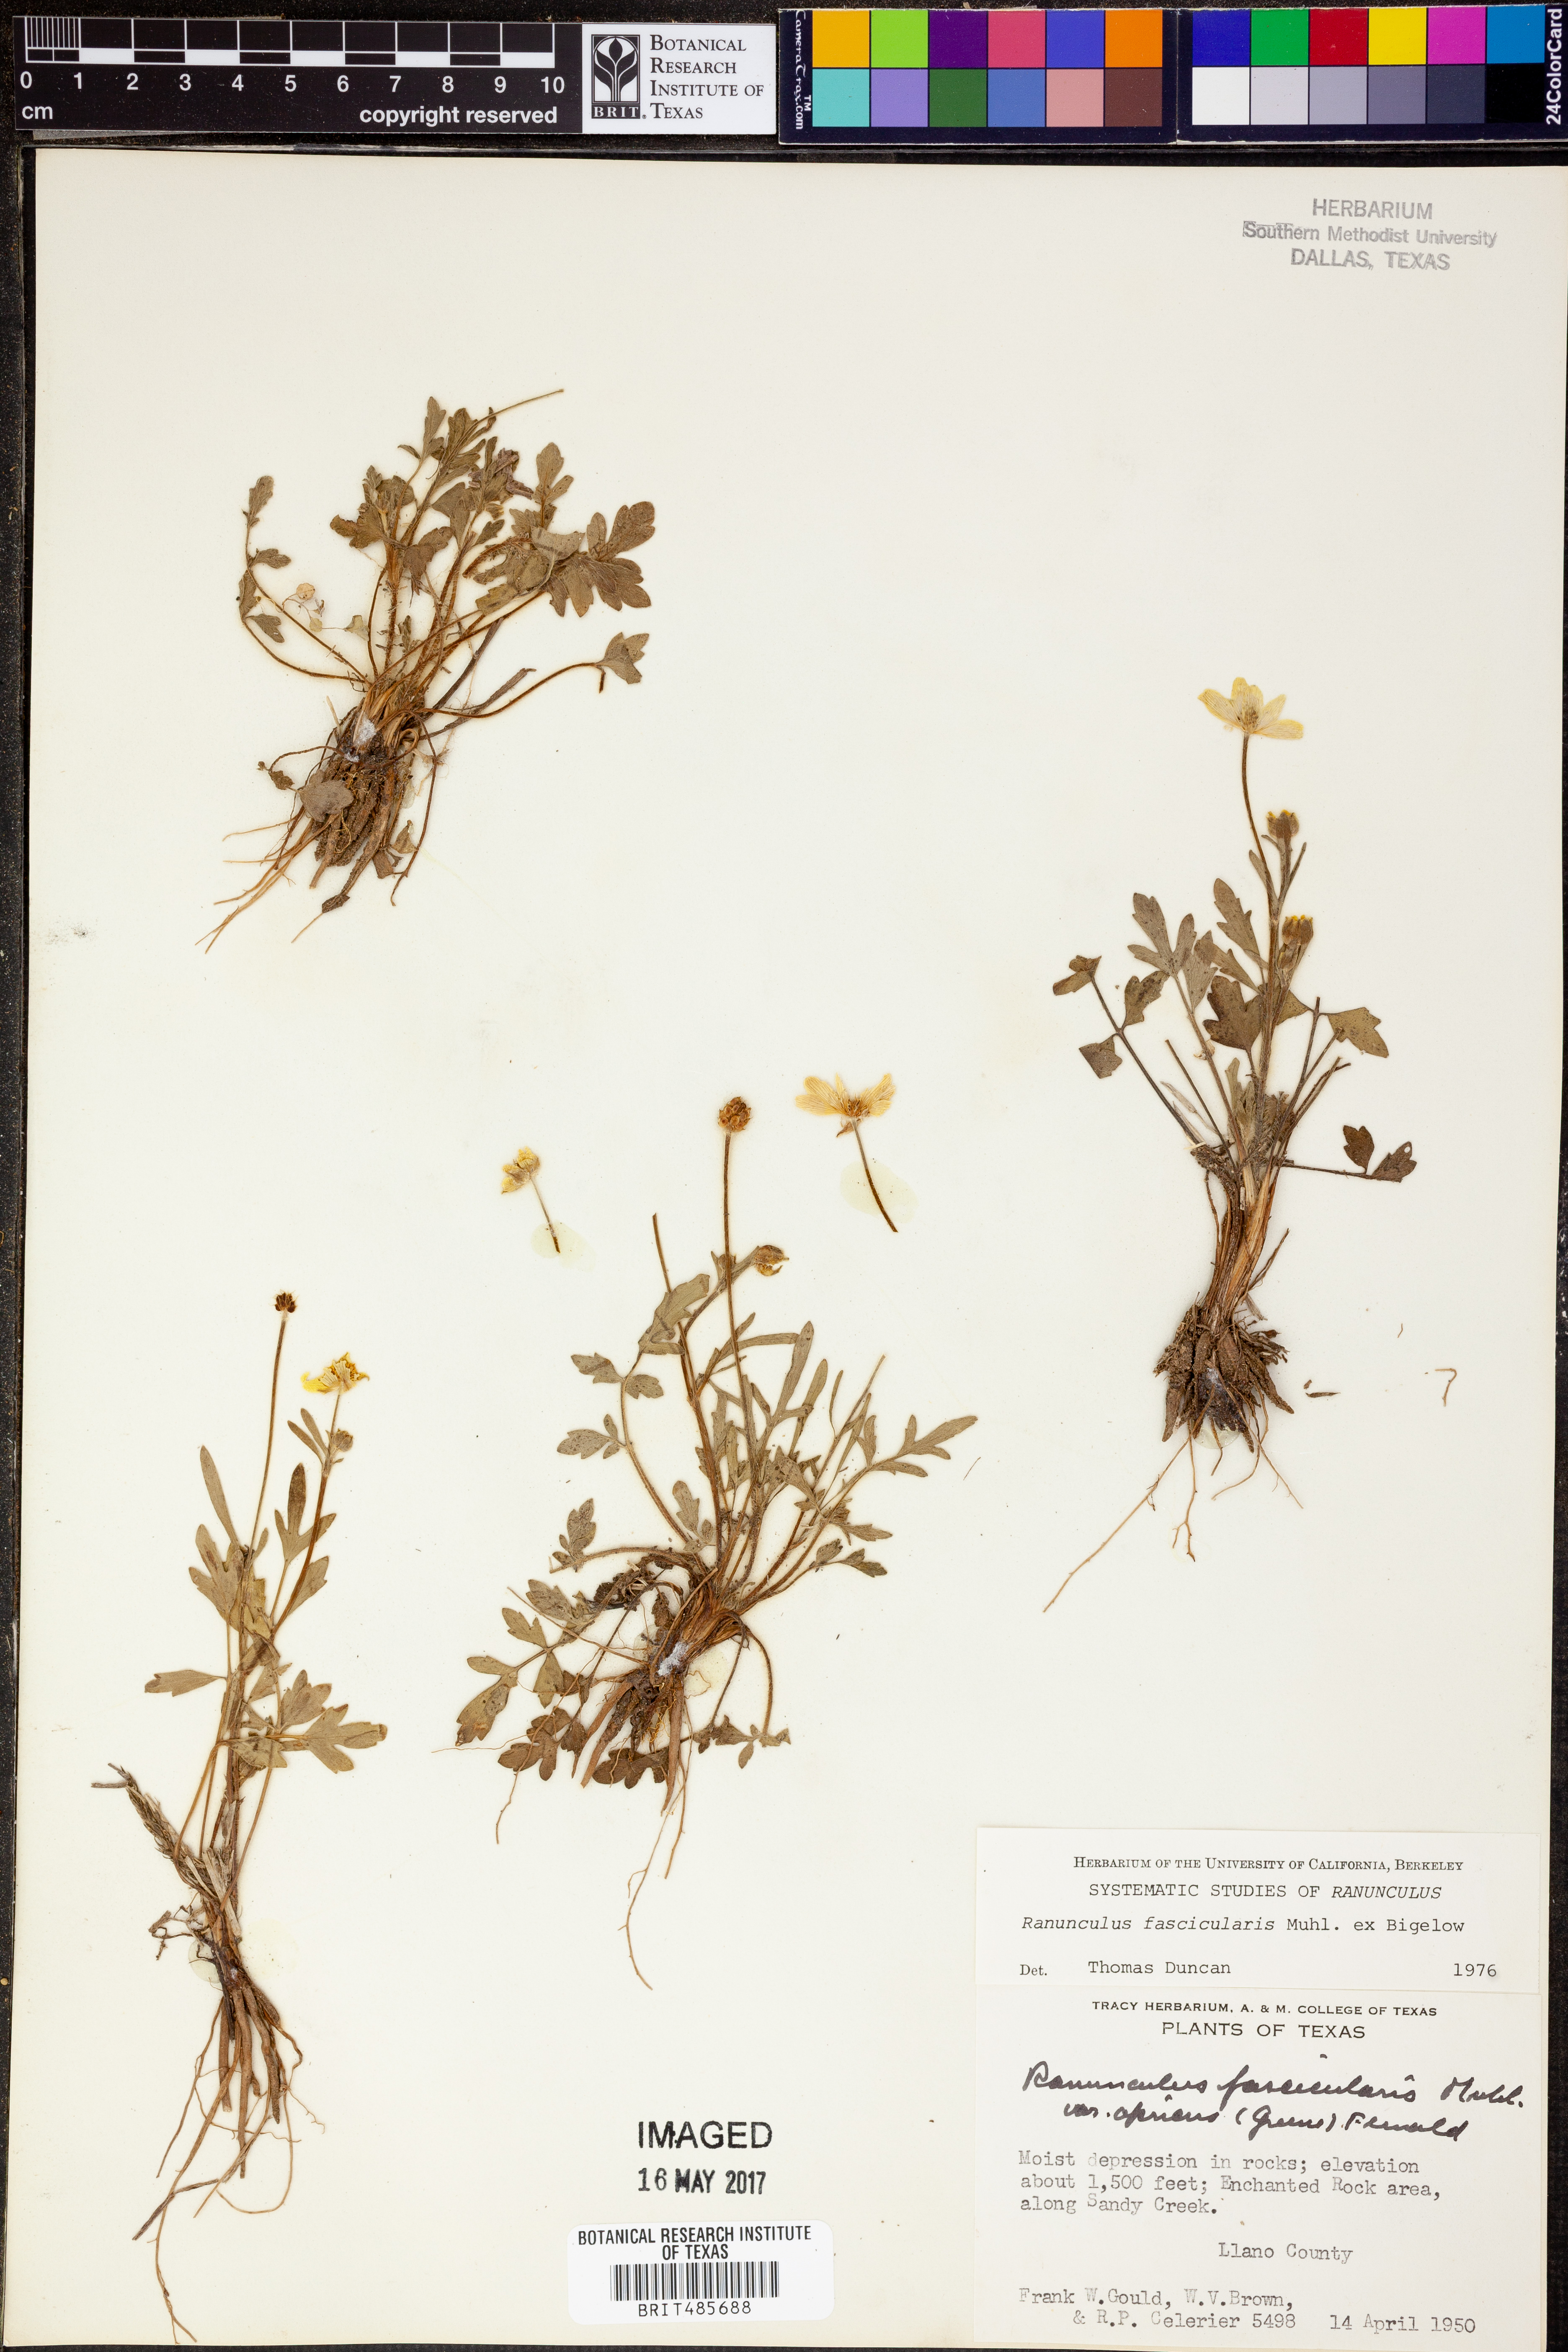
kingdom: Plantae
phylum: Tracheophyta
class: Magnoliopsida
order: Ranunculales
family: Ranunculaceae
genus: Ranunculus
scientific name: Ranunculus fascicularis
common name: Early buttercup
